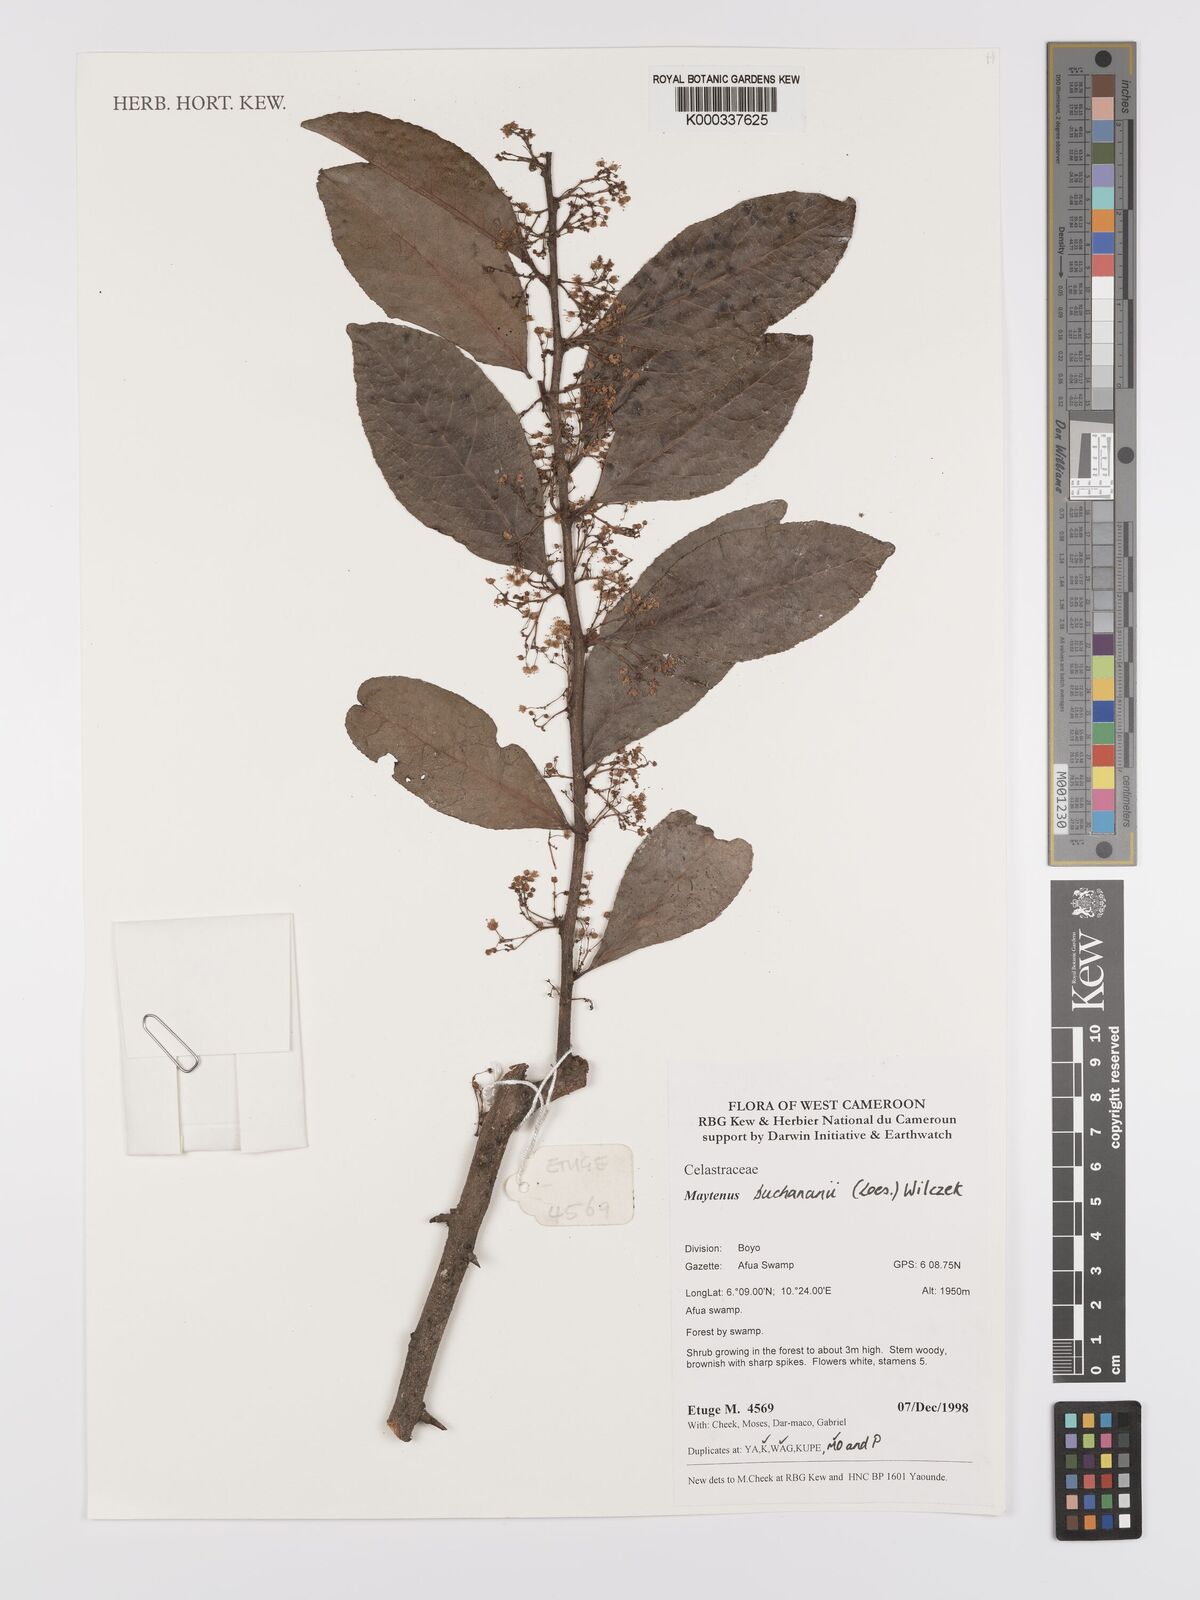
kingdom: Plantae
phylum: Tracheophyta
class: Magnoliopsida
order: Celastrales
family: Celastraceae
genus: Gymnosporia
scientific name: Gymnosporia buchananii
